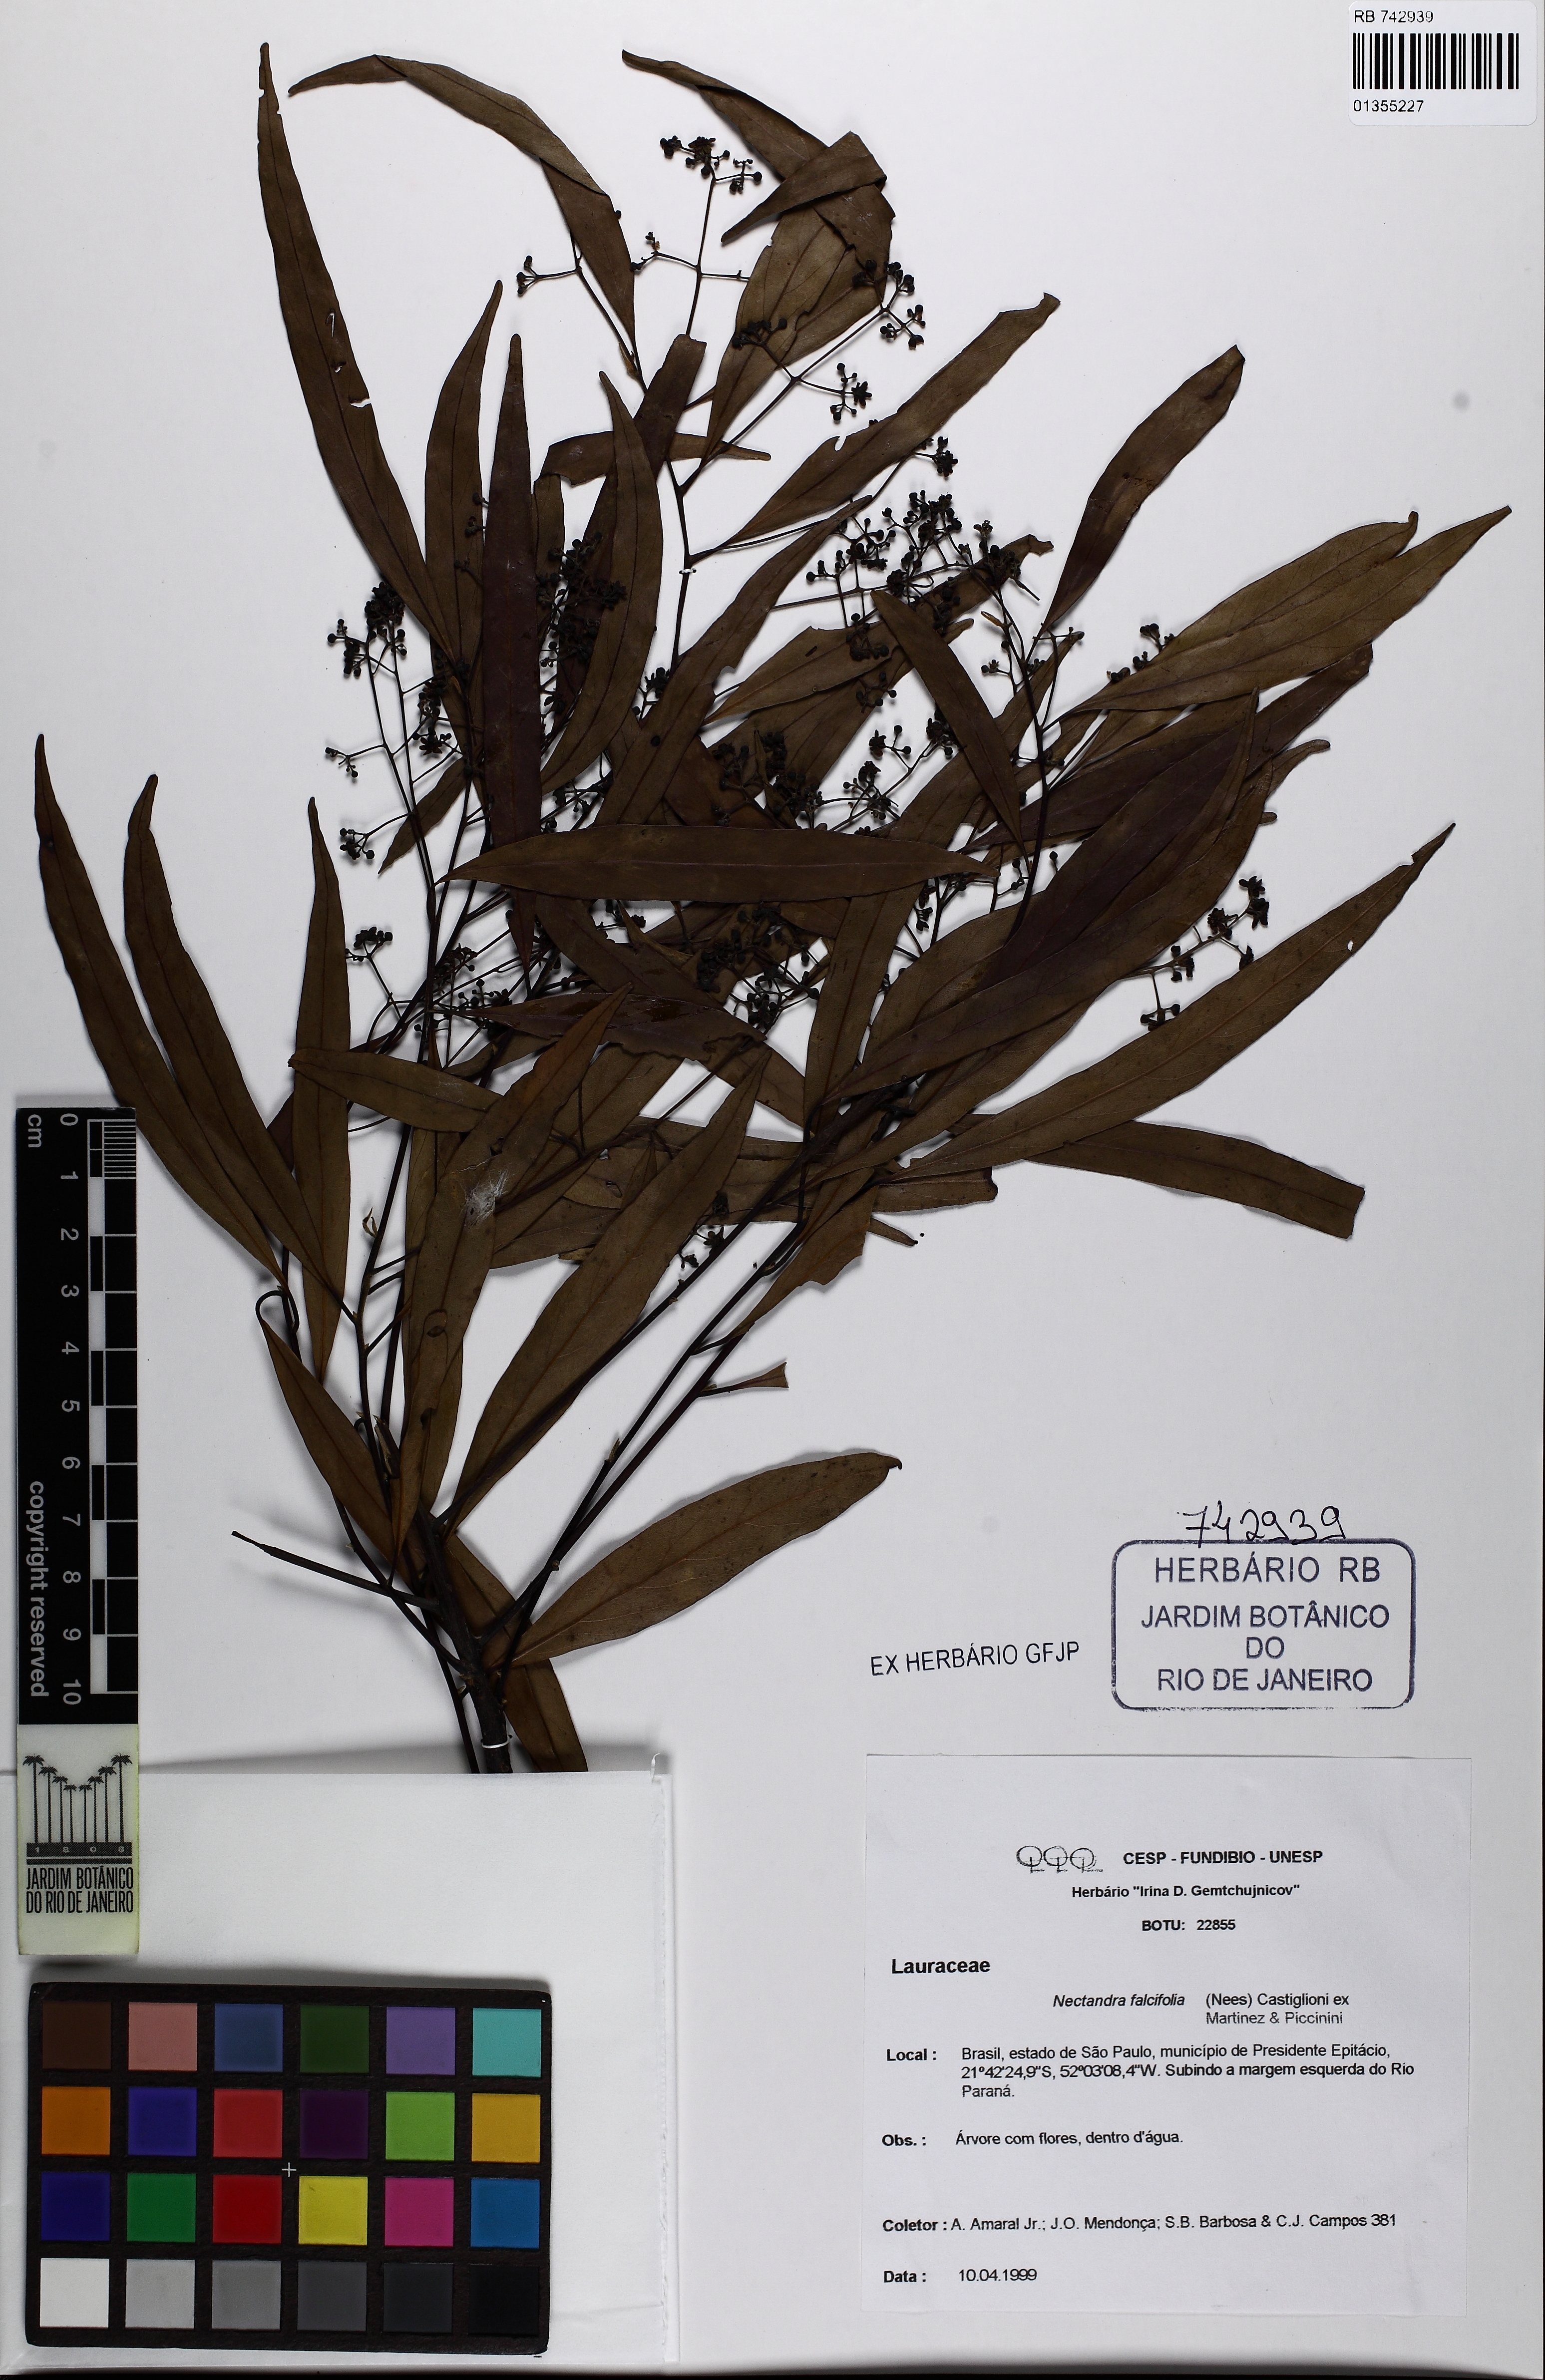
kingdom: Plantae
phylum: Tracheophyta
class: Magnoliopsida
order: Laurales
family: Lauraceae
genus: Nectandra
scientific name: Nectandra angustifolia
